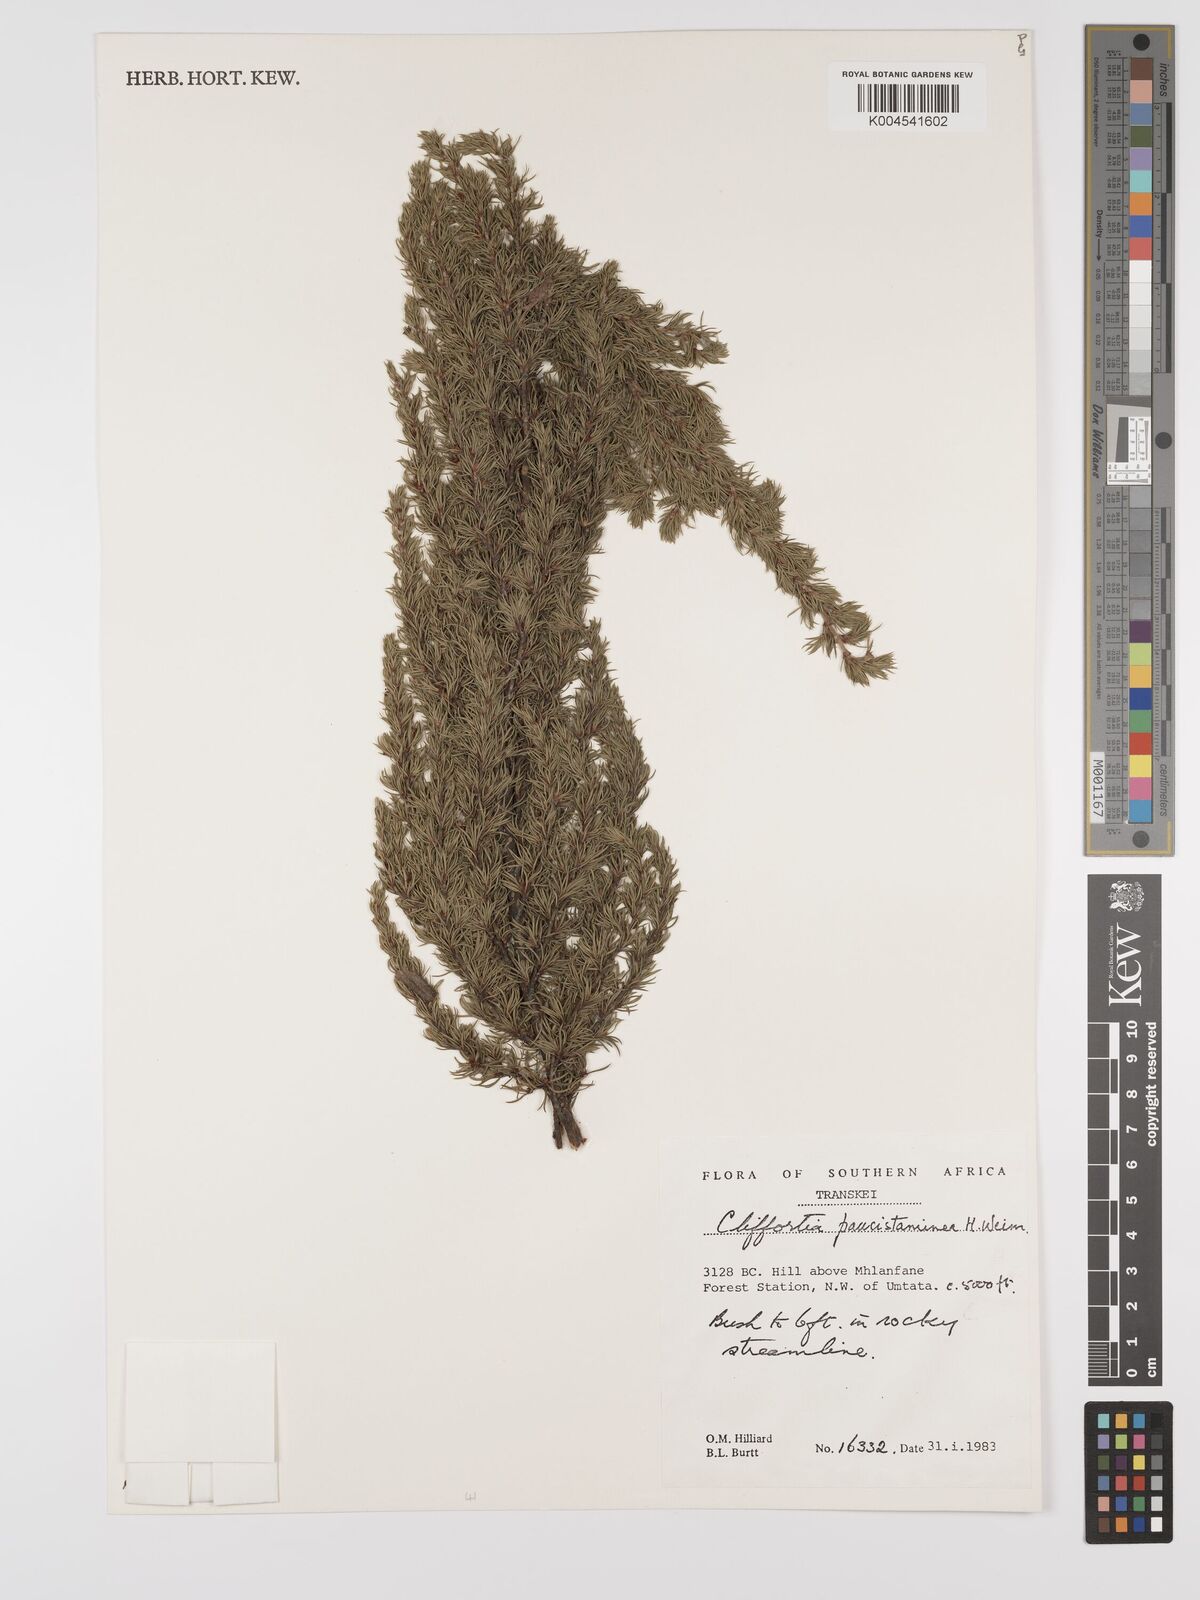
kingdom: Plantae
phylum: Tracheophyta
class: Magnoliopsida
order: Rosales
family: Rosaceae
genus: Cliffortia
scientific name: Cliffortia paucistaminea
